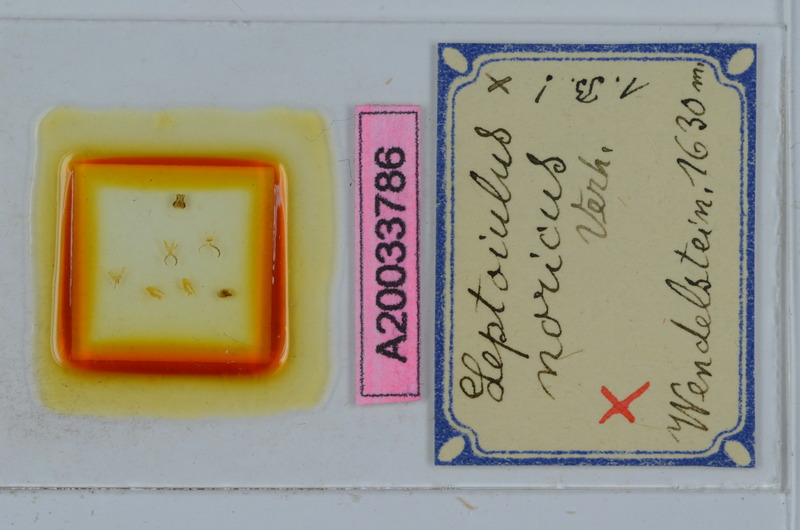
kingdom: Animalia
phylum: Arthropoda
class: Diplopoda
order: Julida
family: Julidae
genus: Leptoiulus
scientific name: Leptoiulus noricus
